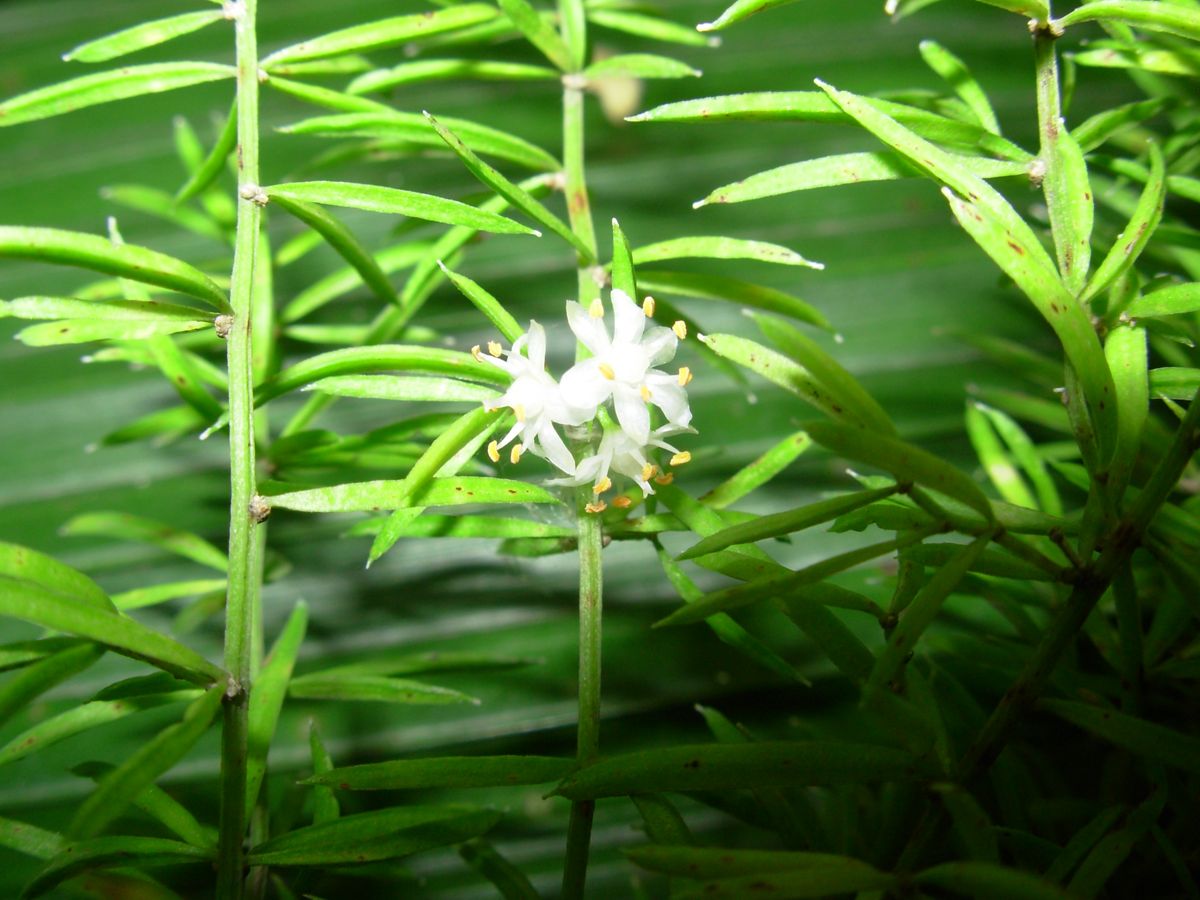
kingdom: Plantae
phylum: Tracheophyta
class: Liliopsida
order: Asparagales
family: Asparagaceae
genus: Asparagus
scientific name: Asparagus densiflorus
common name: Asparagus fern
